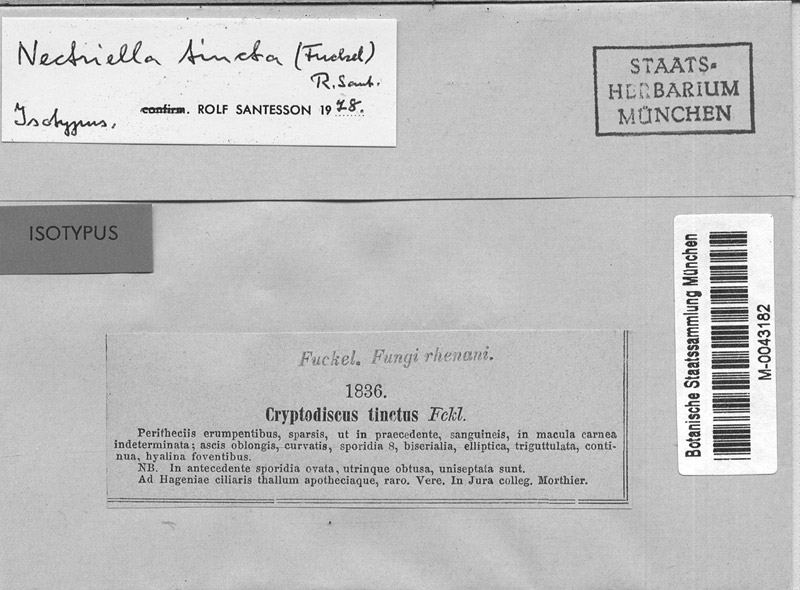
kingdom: Fungi
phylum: Ascomycota
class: Sordariomycetes
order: Hypocreales
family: Bionectriaceae
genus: Pronectria
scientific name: Pronectria tincta
